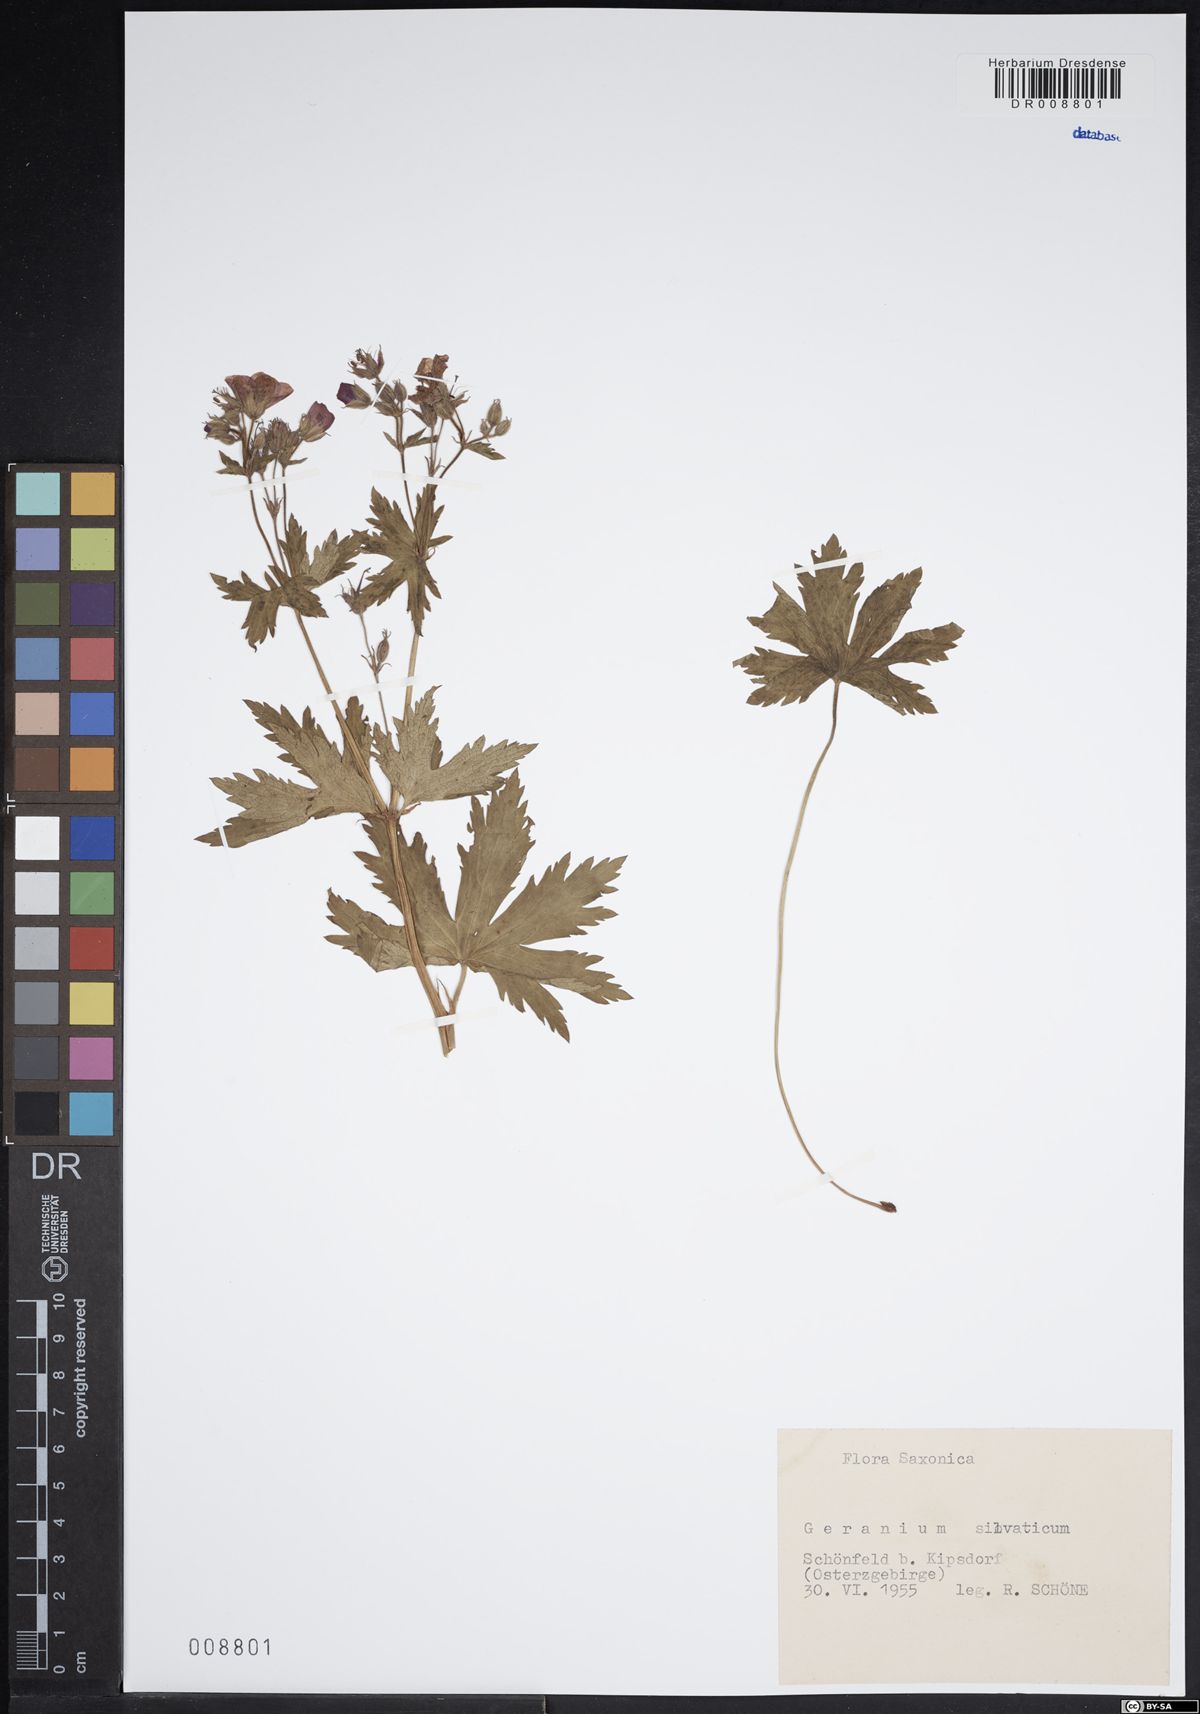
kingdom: Plantae
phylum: Tracheophyta
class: Magnoliopsida
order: Geraniales
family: Geraniaceae
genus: Geranium
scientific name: Geranium sylvaticum
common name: Wood crane's-bill
